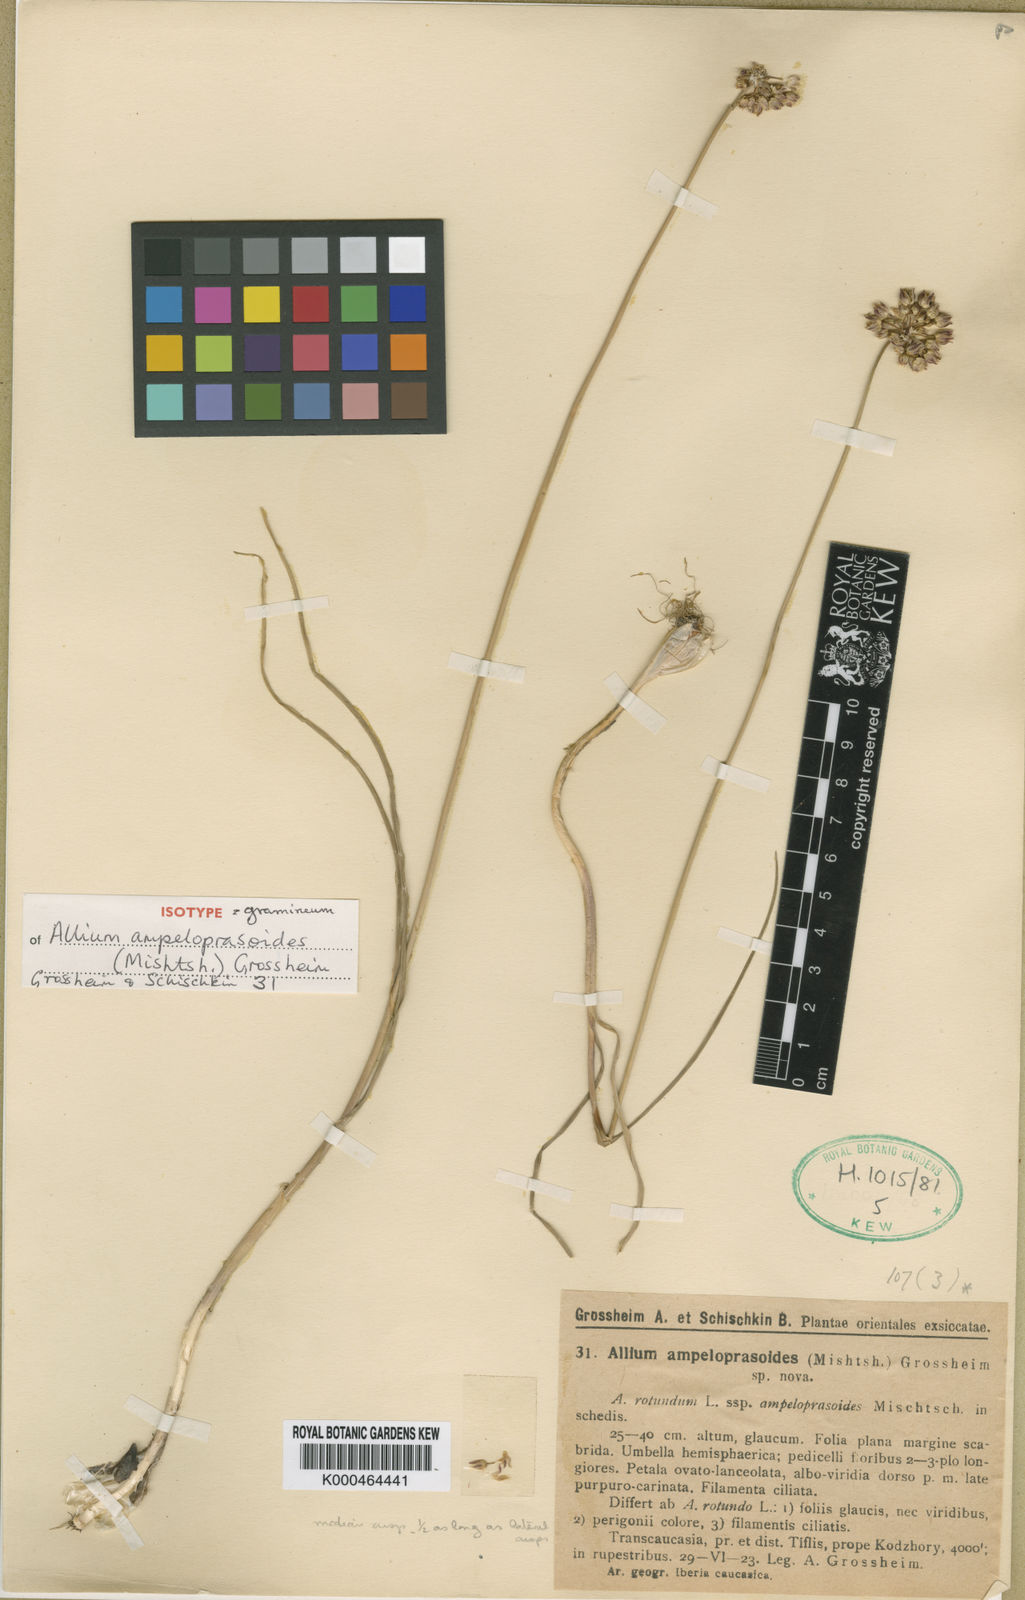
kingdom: Plantae
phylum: Tracheophyta
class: Liliopsida
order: Asparagales
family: Amaryllidaceae
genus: Allium
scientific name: Allium gramineum
